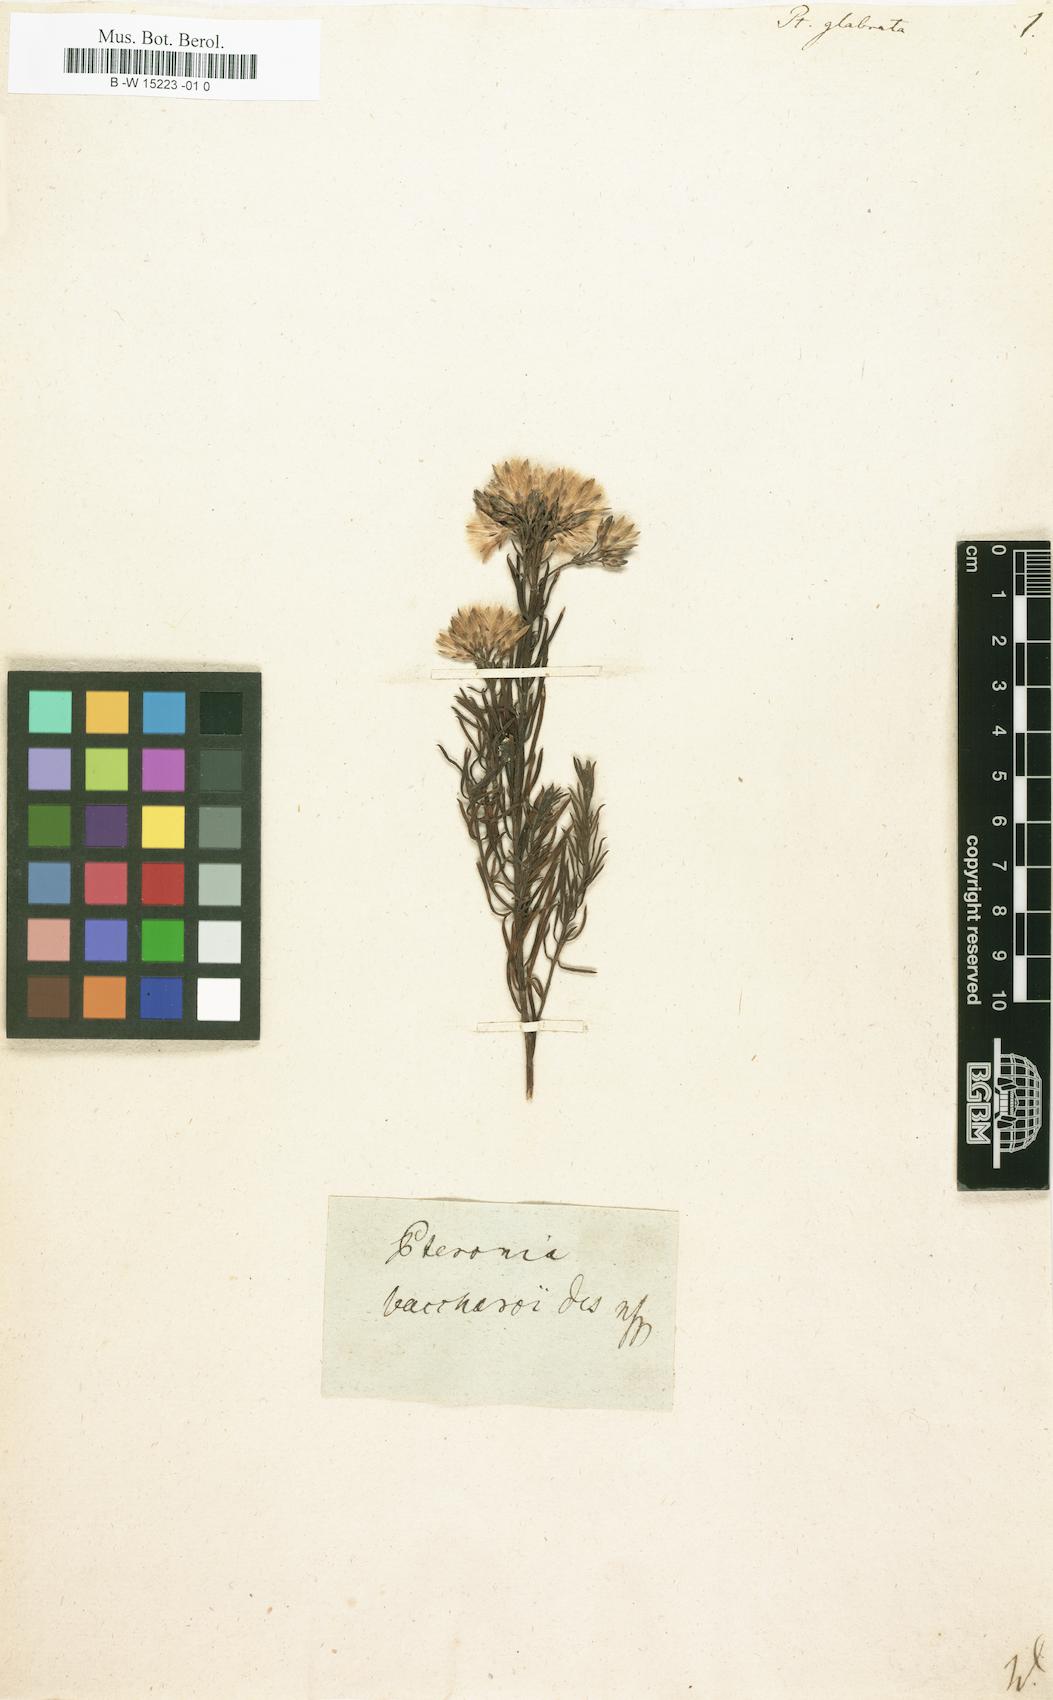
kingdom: Plantae
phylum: Tracheophyta
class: Magnoliopsida
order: Asterales
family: Asteraceae
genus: Pteronia
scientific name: Pteronia glabrata
